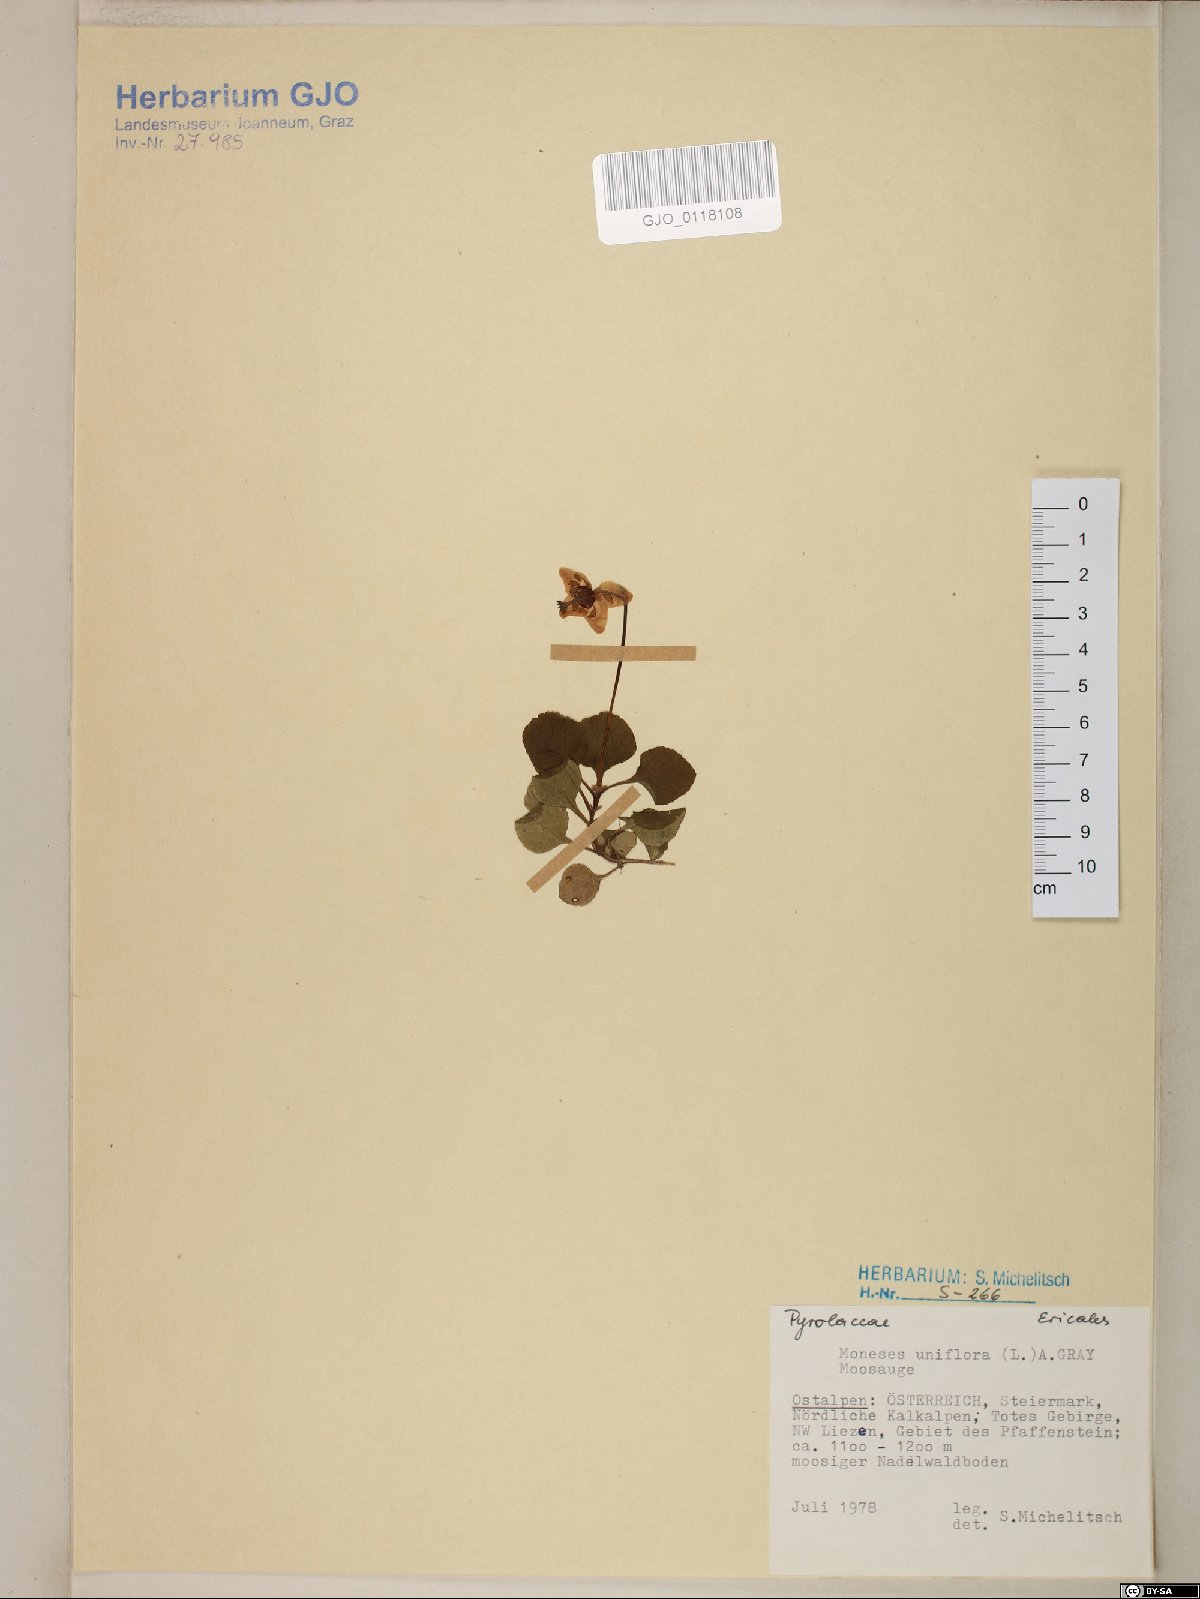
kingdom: Plantae
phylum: Tracheophyta
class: Magnoliopsida
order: Ericales
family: Ericaceae
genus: Moneses
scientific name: Moneses uniflora
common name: One-flowered wintergreen
